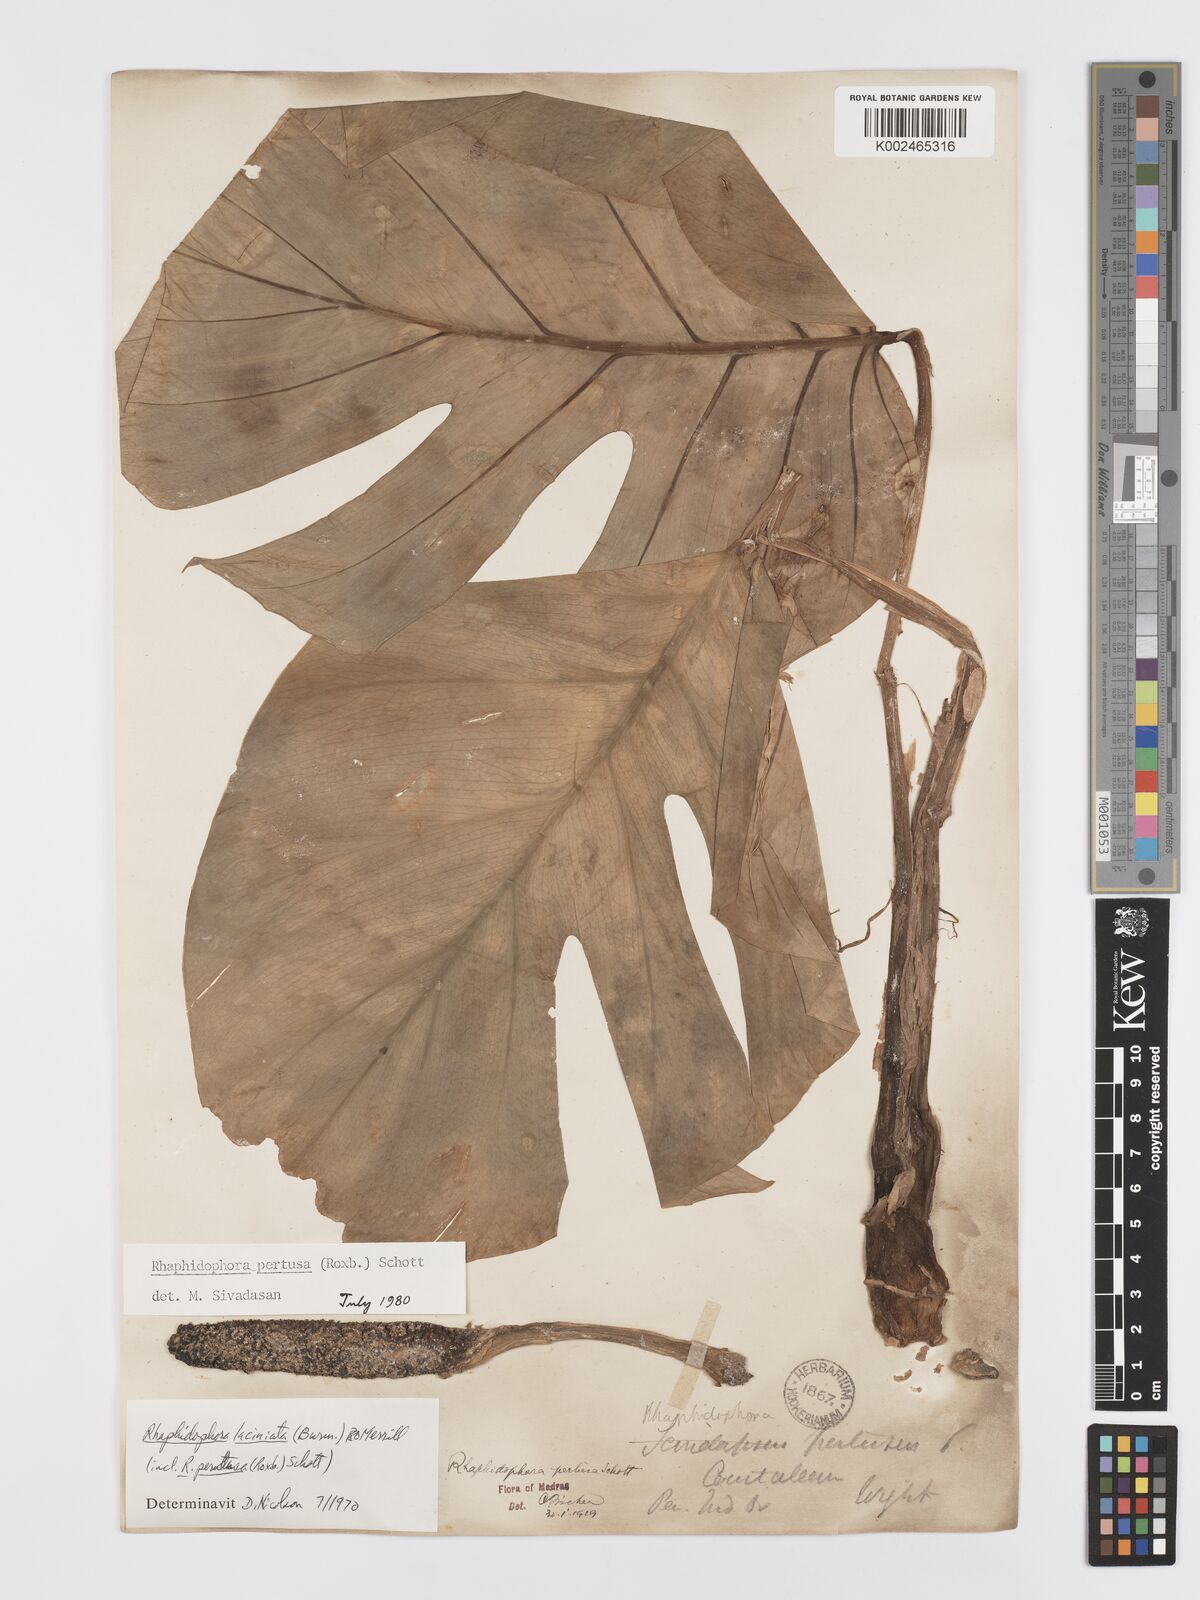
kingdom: Plantae
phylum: Tracheophyta
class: Liliopsida
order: Alismatales
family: Araceae
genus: Rhaphidophora
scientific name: Rhaphidophora pertusa
